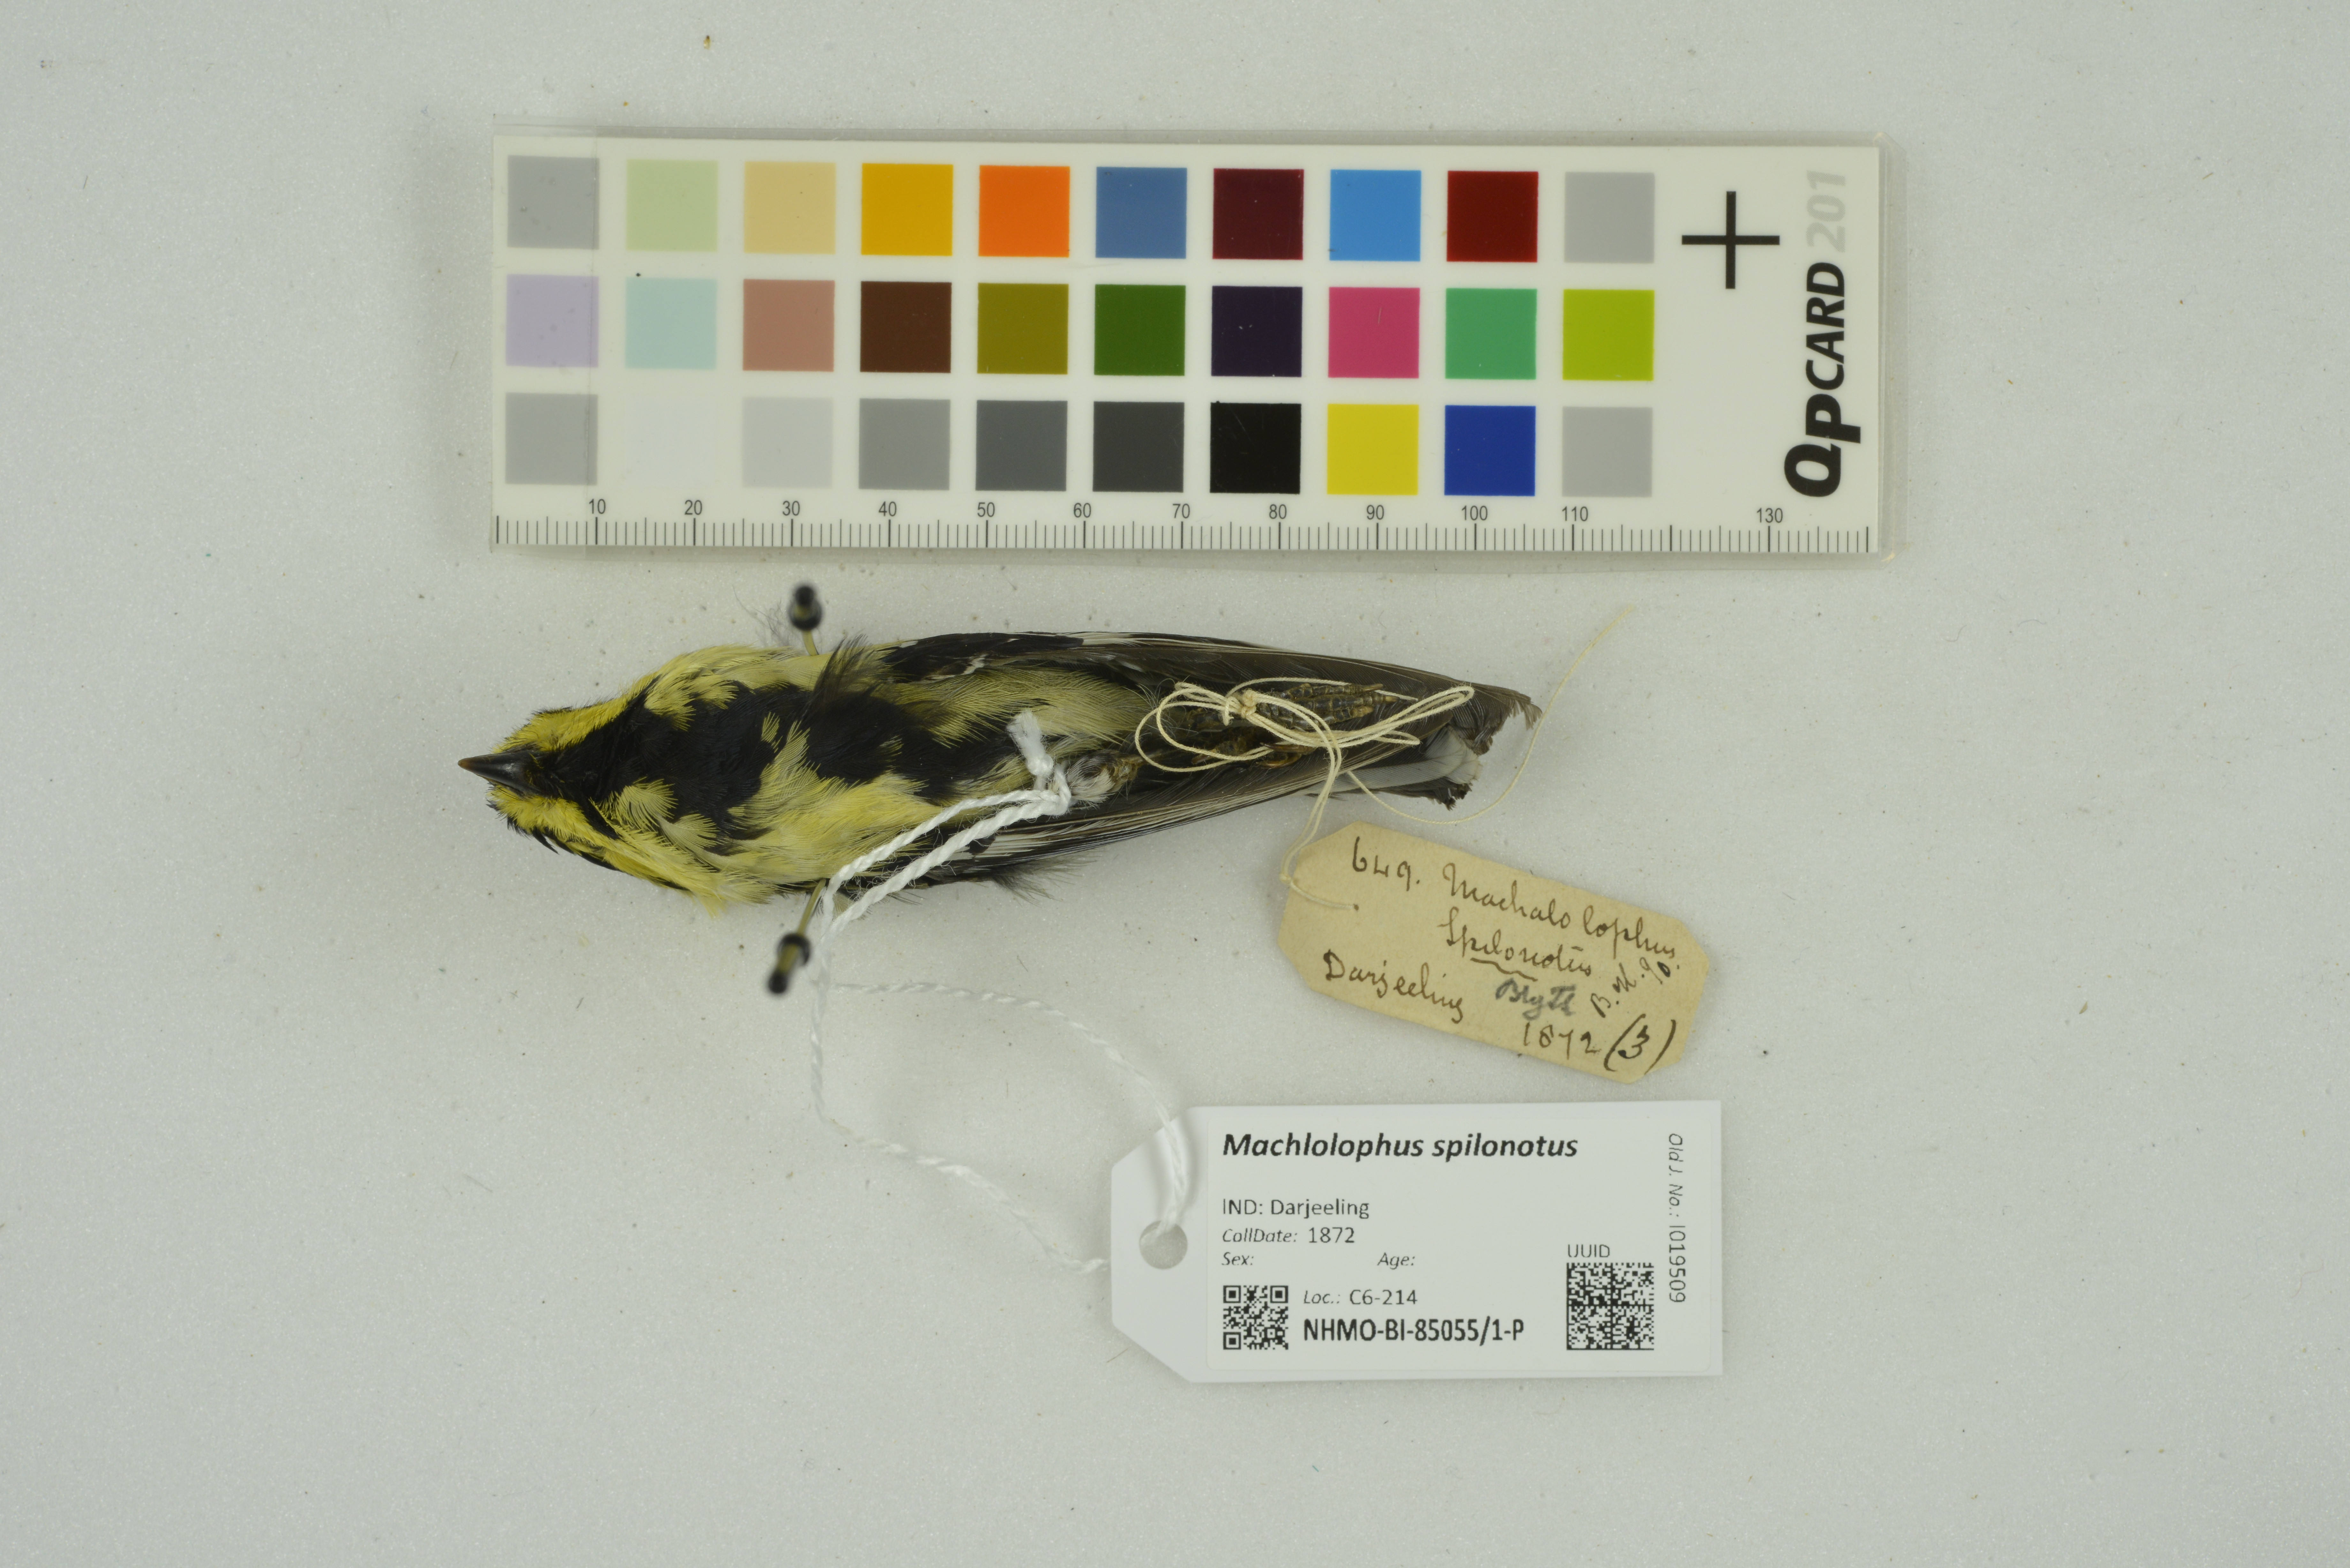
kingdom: Animalia
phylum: Chordata
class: Aves
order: Passeriformes
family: Paridae
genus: Parus
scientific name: Parus spilonotus
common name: Yellow-cheeked tit
